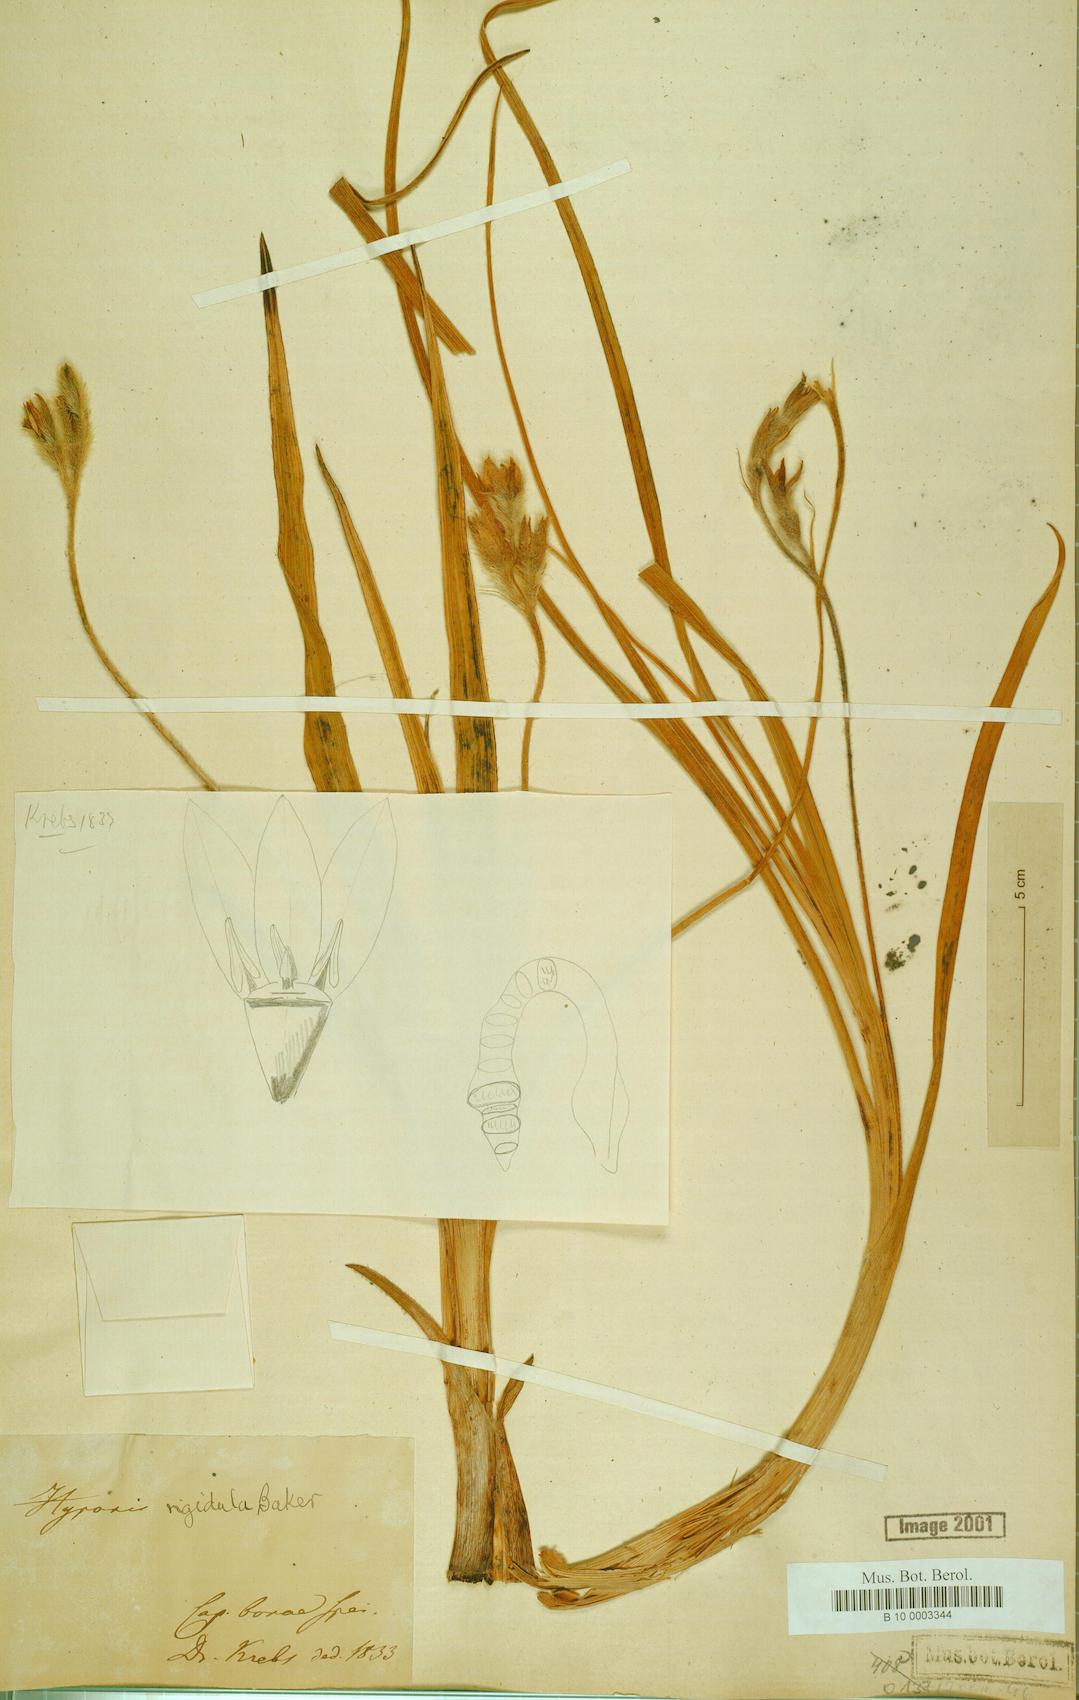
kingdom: Plantae
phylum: Tracheophyta
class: Liliopsida
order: Asparagales
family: Hypoxidaceae
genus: Hypoxis
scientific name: Hypoxis rigidula
